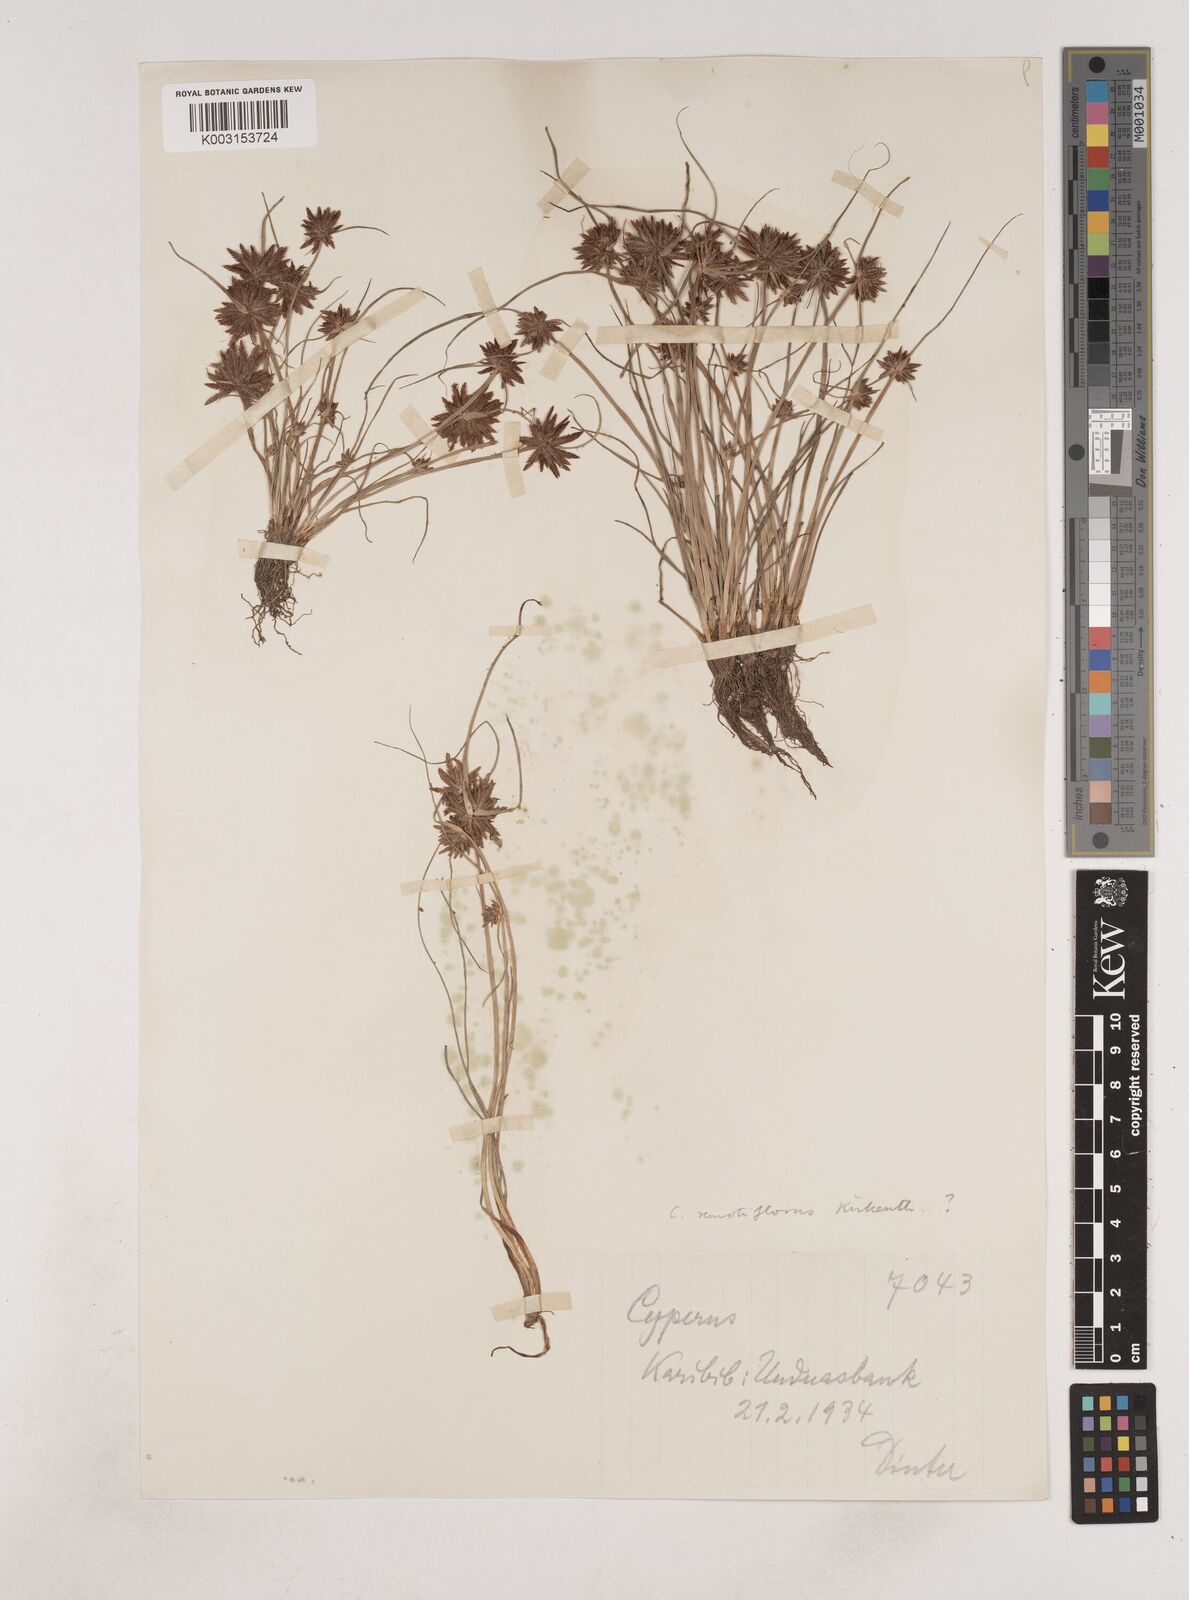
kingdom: Plantae
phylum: Tracheophyta
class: Liliopsida
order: Poales
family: Cyperaceae
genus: Cyperus
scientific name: Cyperus remotiflorus
